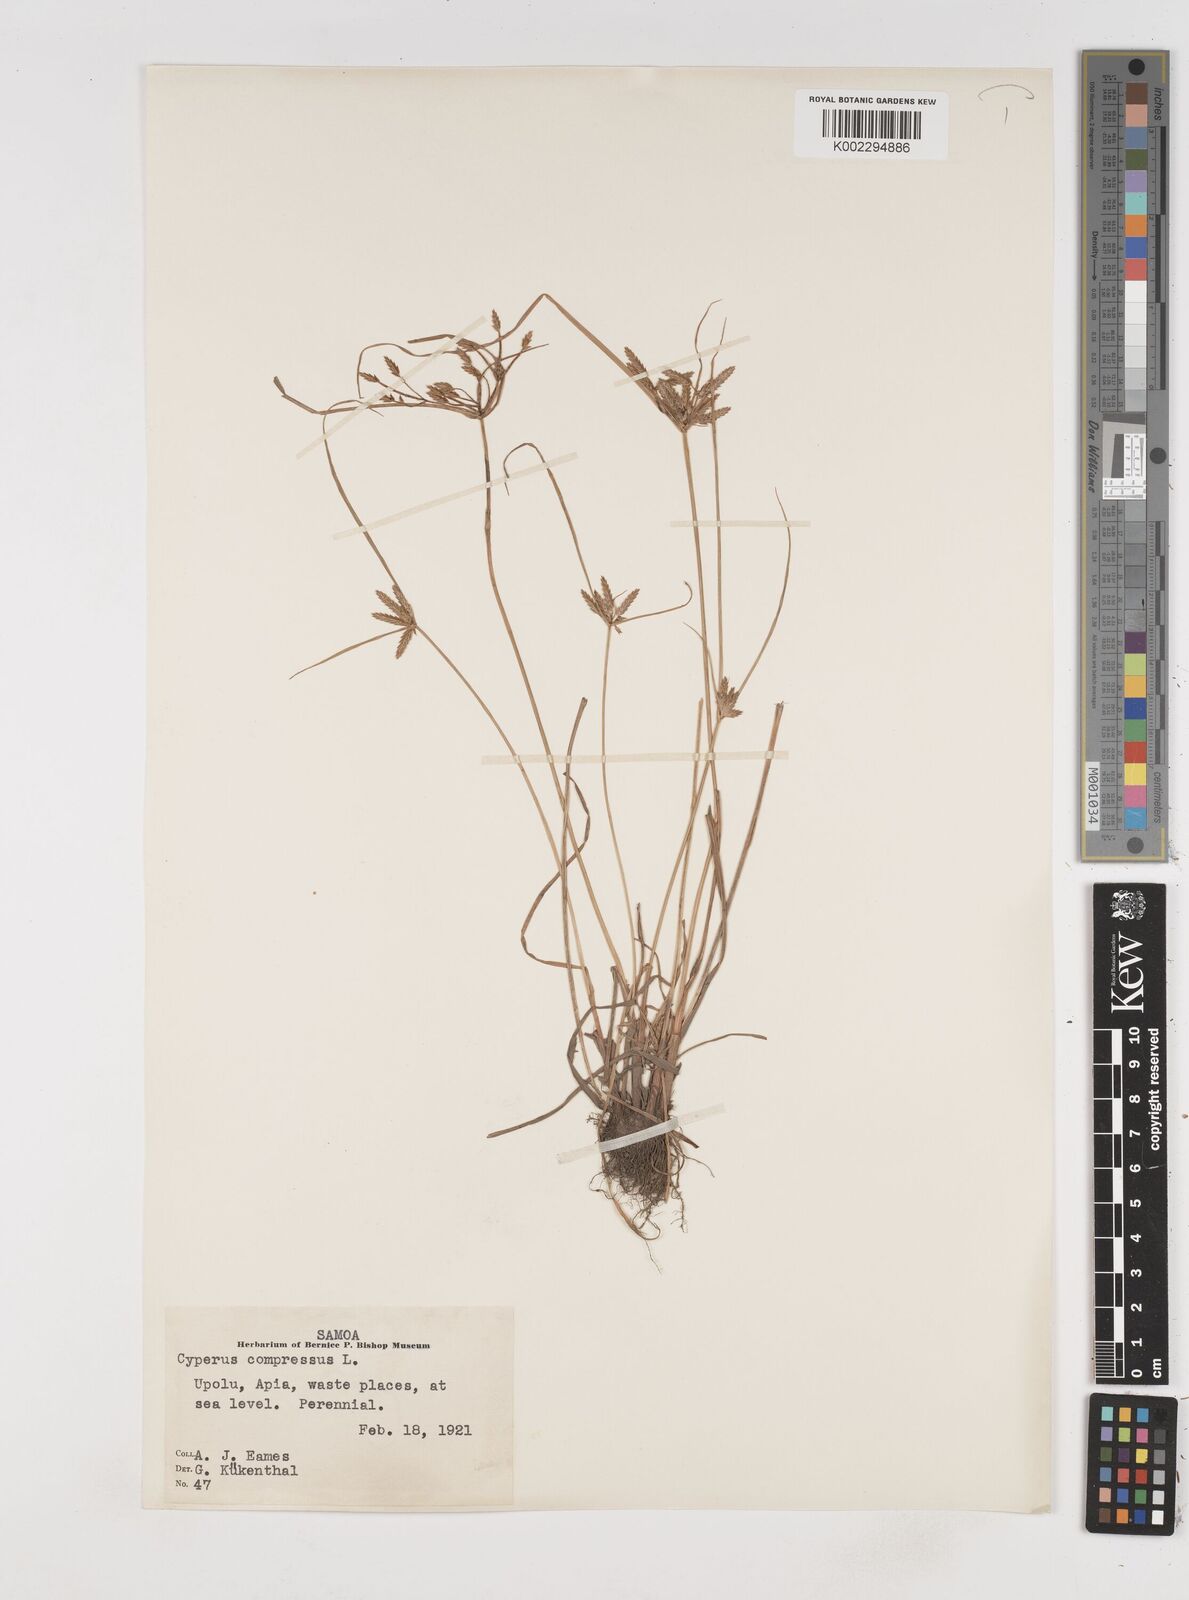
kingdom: Plantae
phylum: Tracheophyta
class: Liliopsida
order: Poales
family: Cyperaceae
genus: Cyperus
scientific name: Cyperus compressus
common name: Poorland flatsedge
